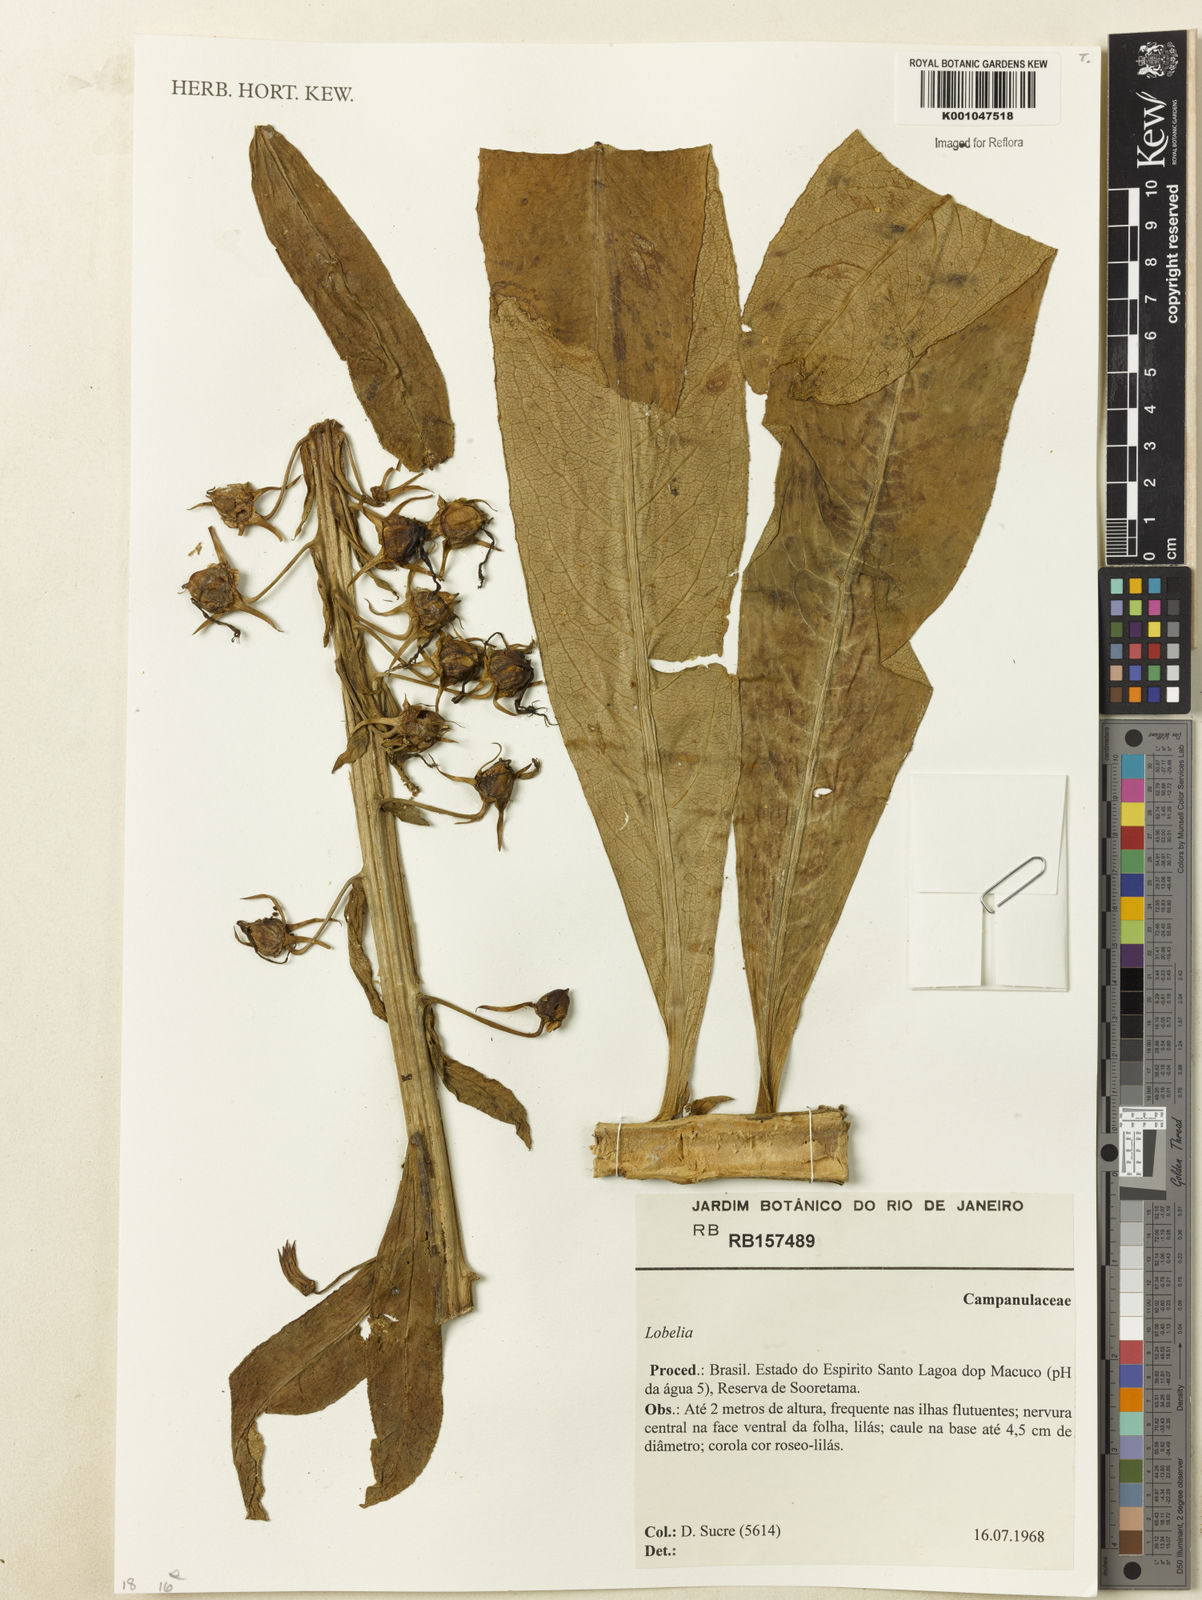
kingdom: Plantae
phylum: Tracheophyta
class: Magnoliopsida
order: Asterales
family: Campanulaceae
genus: Lobelia
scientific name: Lobelia
